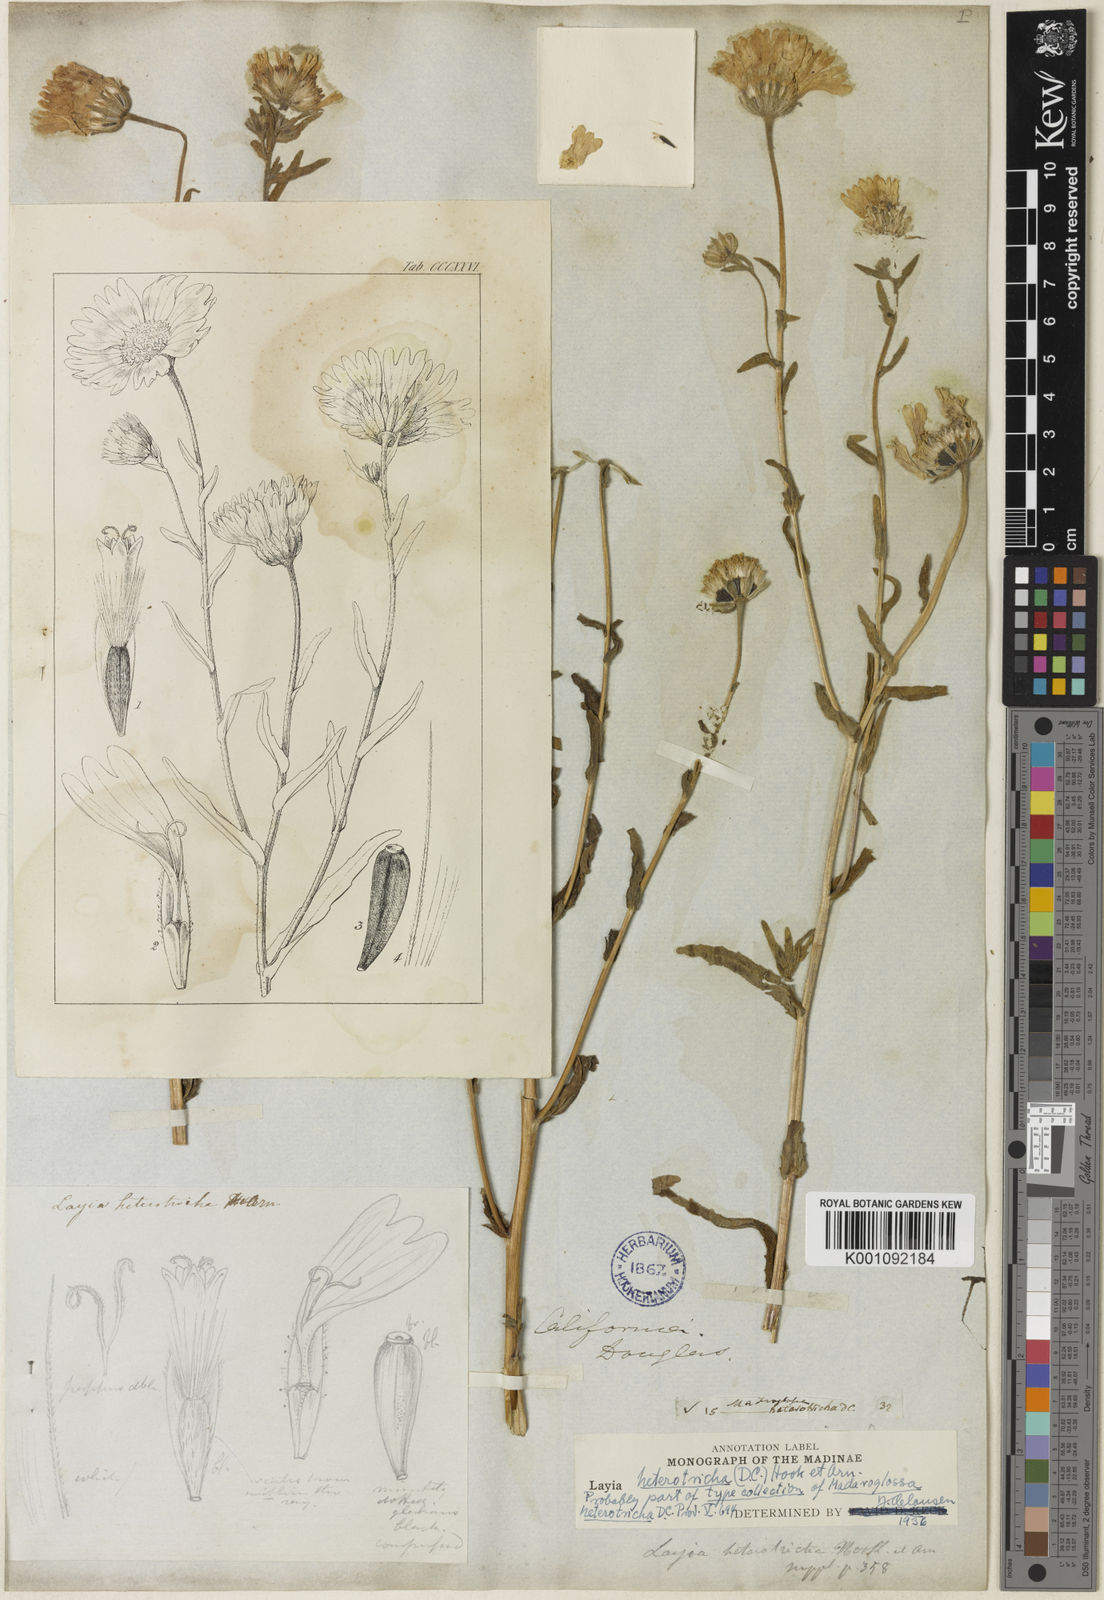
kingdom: Plantae
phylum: Tracheophyta
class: Magnoliopsida
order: Asterales
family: Asteraceae
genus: Layia
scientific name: Layia heterotricha
